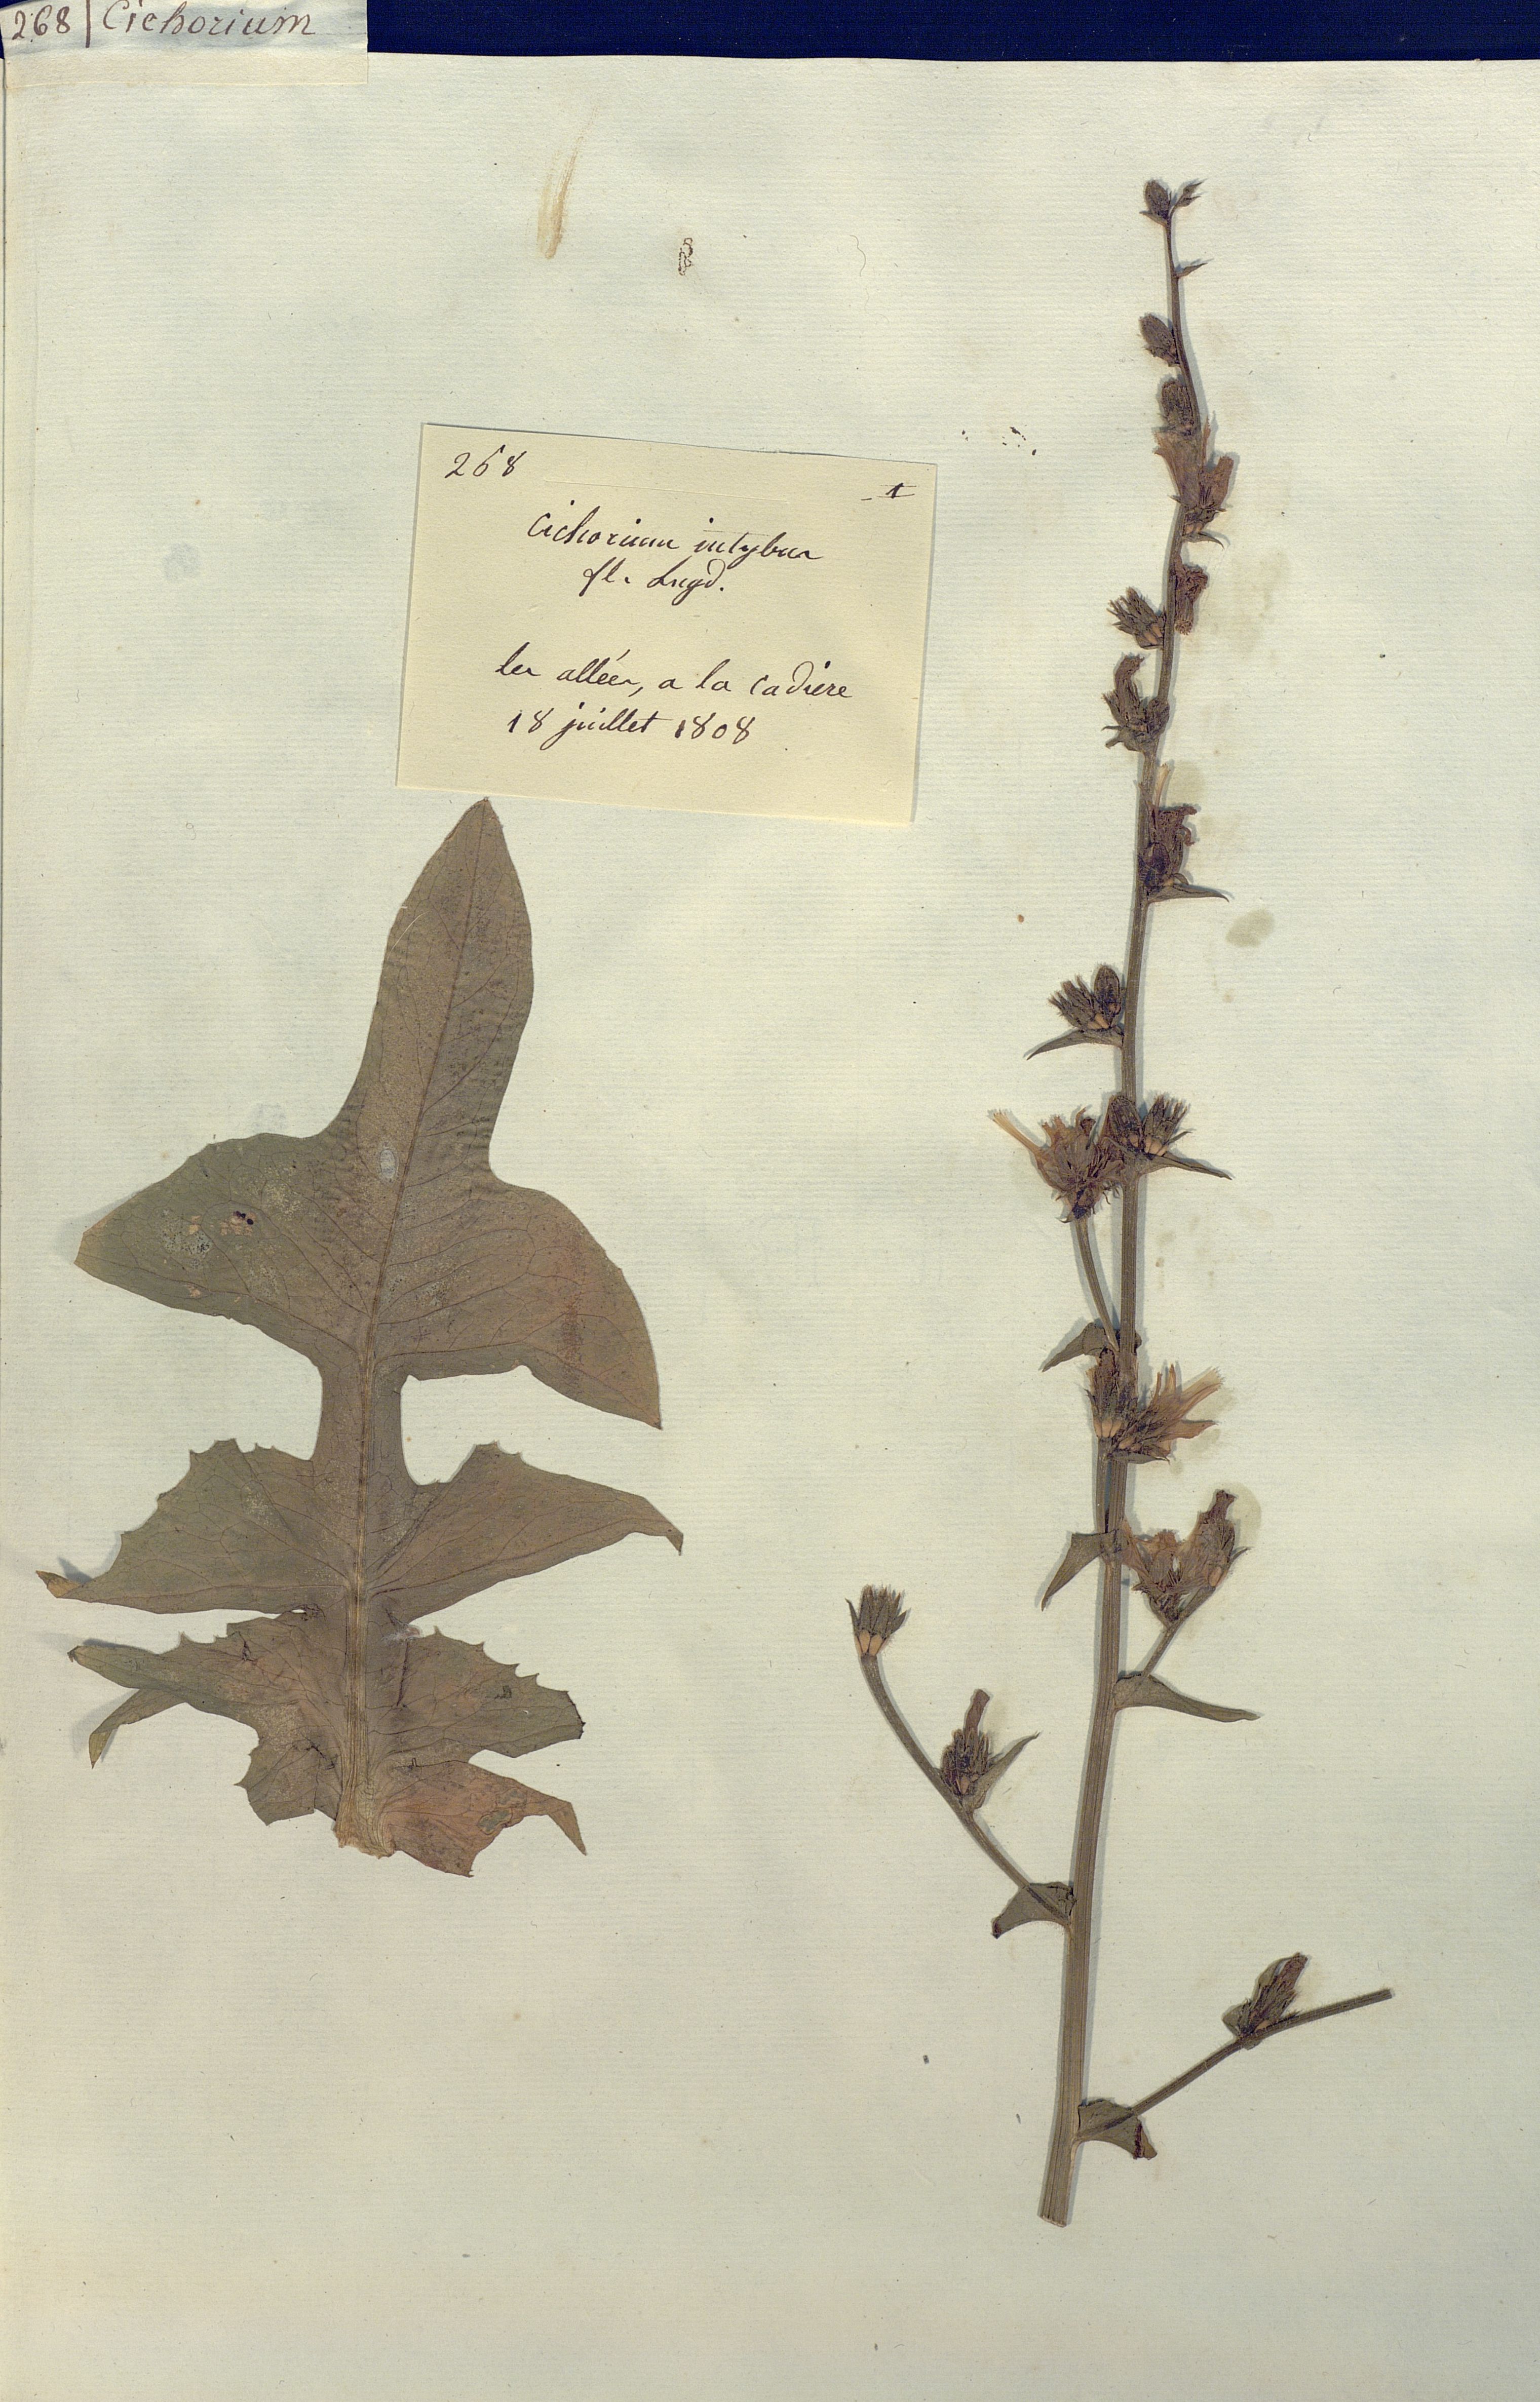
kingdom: Plantae
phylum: Tracheophyta
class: Magnoliopsida
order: Asterales
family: Asteraceae
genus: Cichorium
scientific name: Cichorium intybus
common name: Chicory
